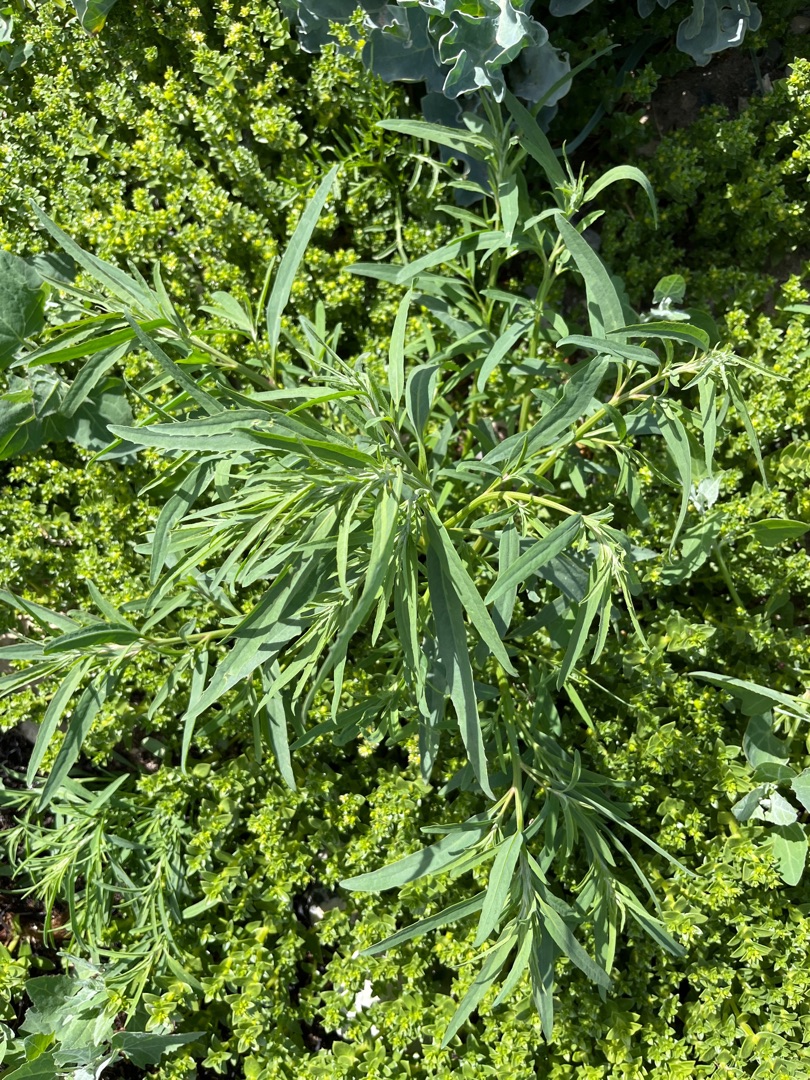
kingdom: Plantae
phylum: Tracheophyta
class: Magnoliopsida
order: Caryophyllales
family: Amaranthaceae
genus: Atriplex
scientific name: Atriplex littoralis
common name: Strand-mælde
